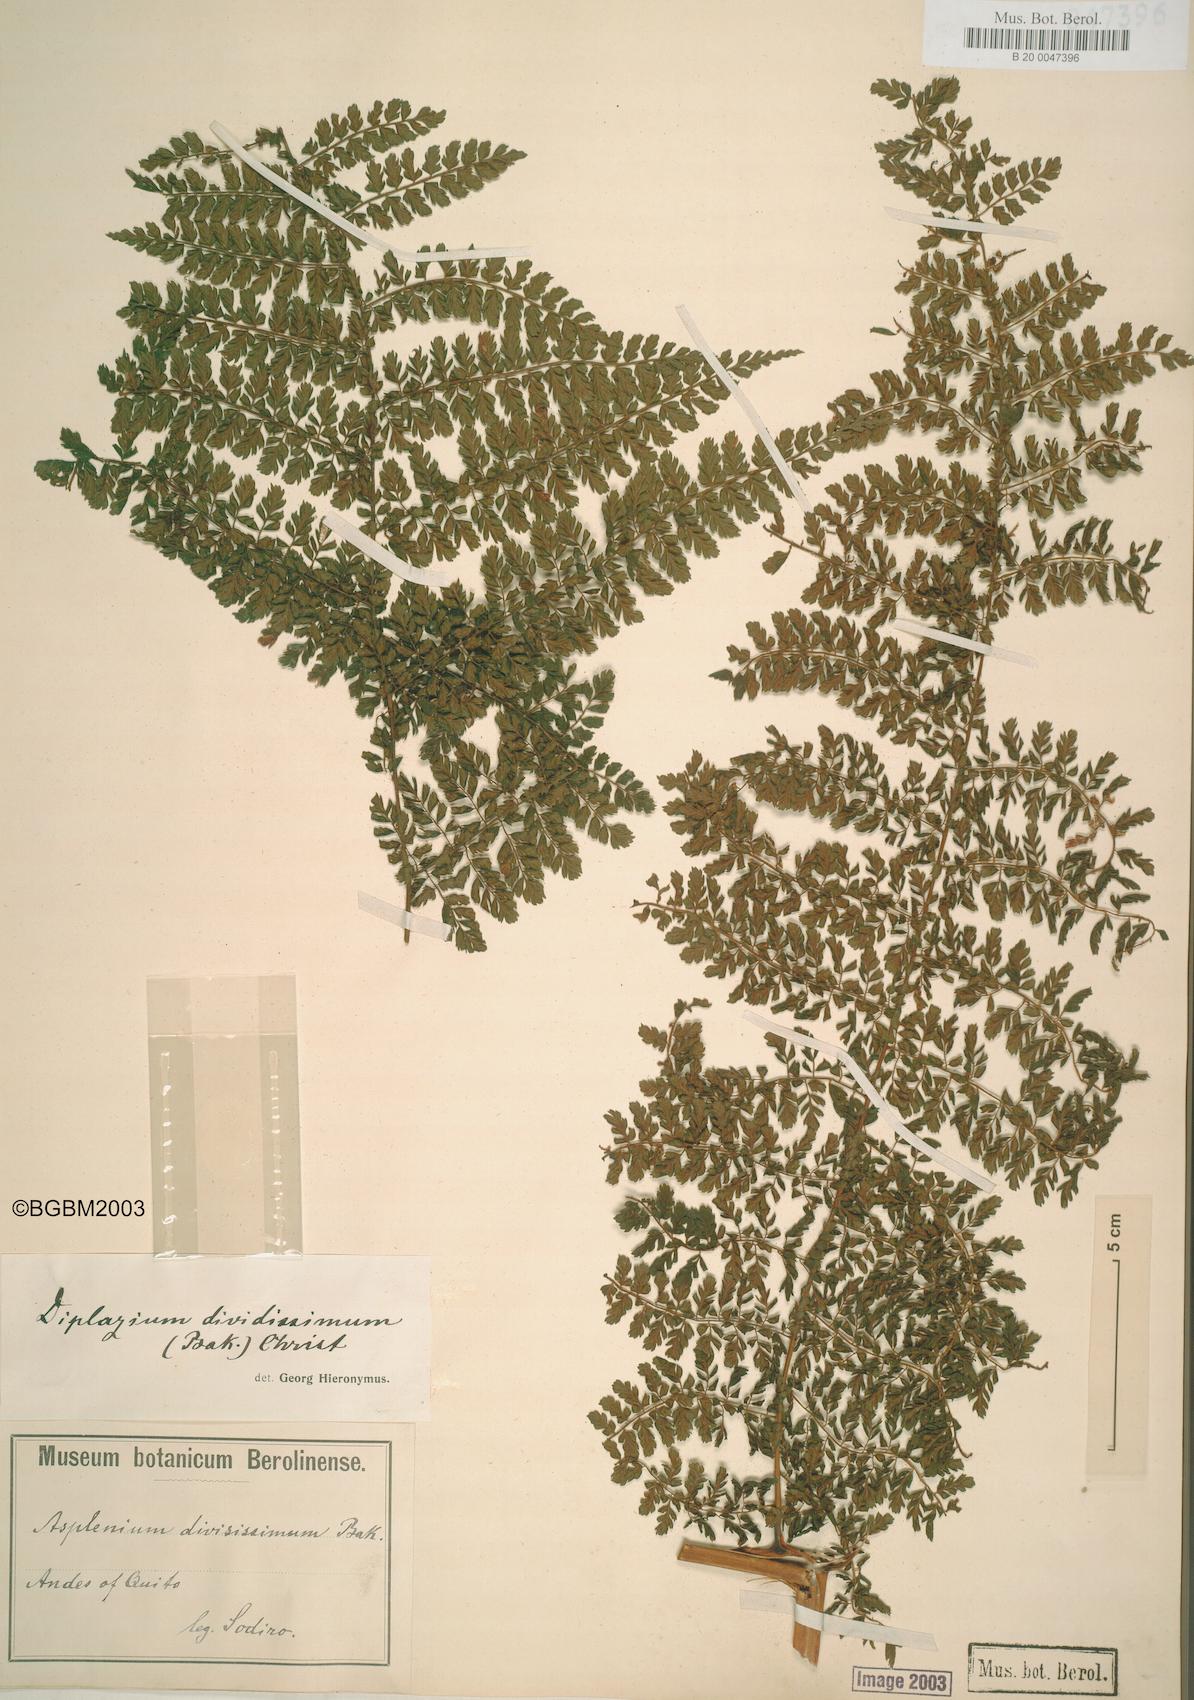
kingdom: Plantae
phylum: Tracheophyta
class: Polypodiopsida
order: Polypodiales
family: Athyriaceae
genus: Diplazium
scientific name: Diplazium divisissimum
